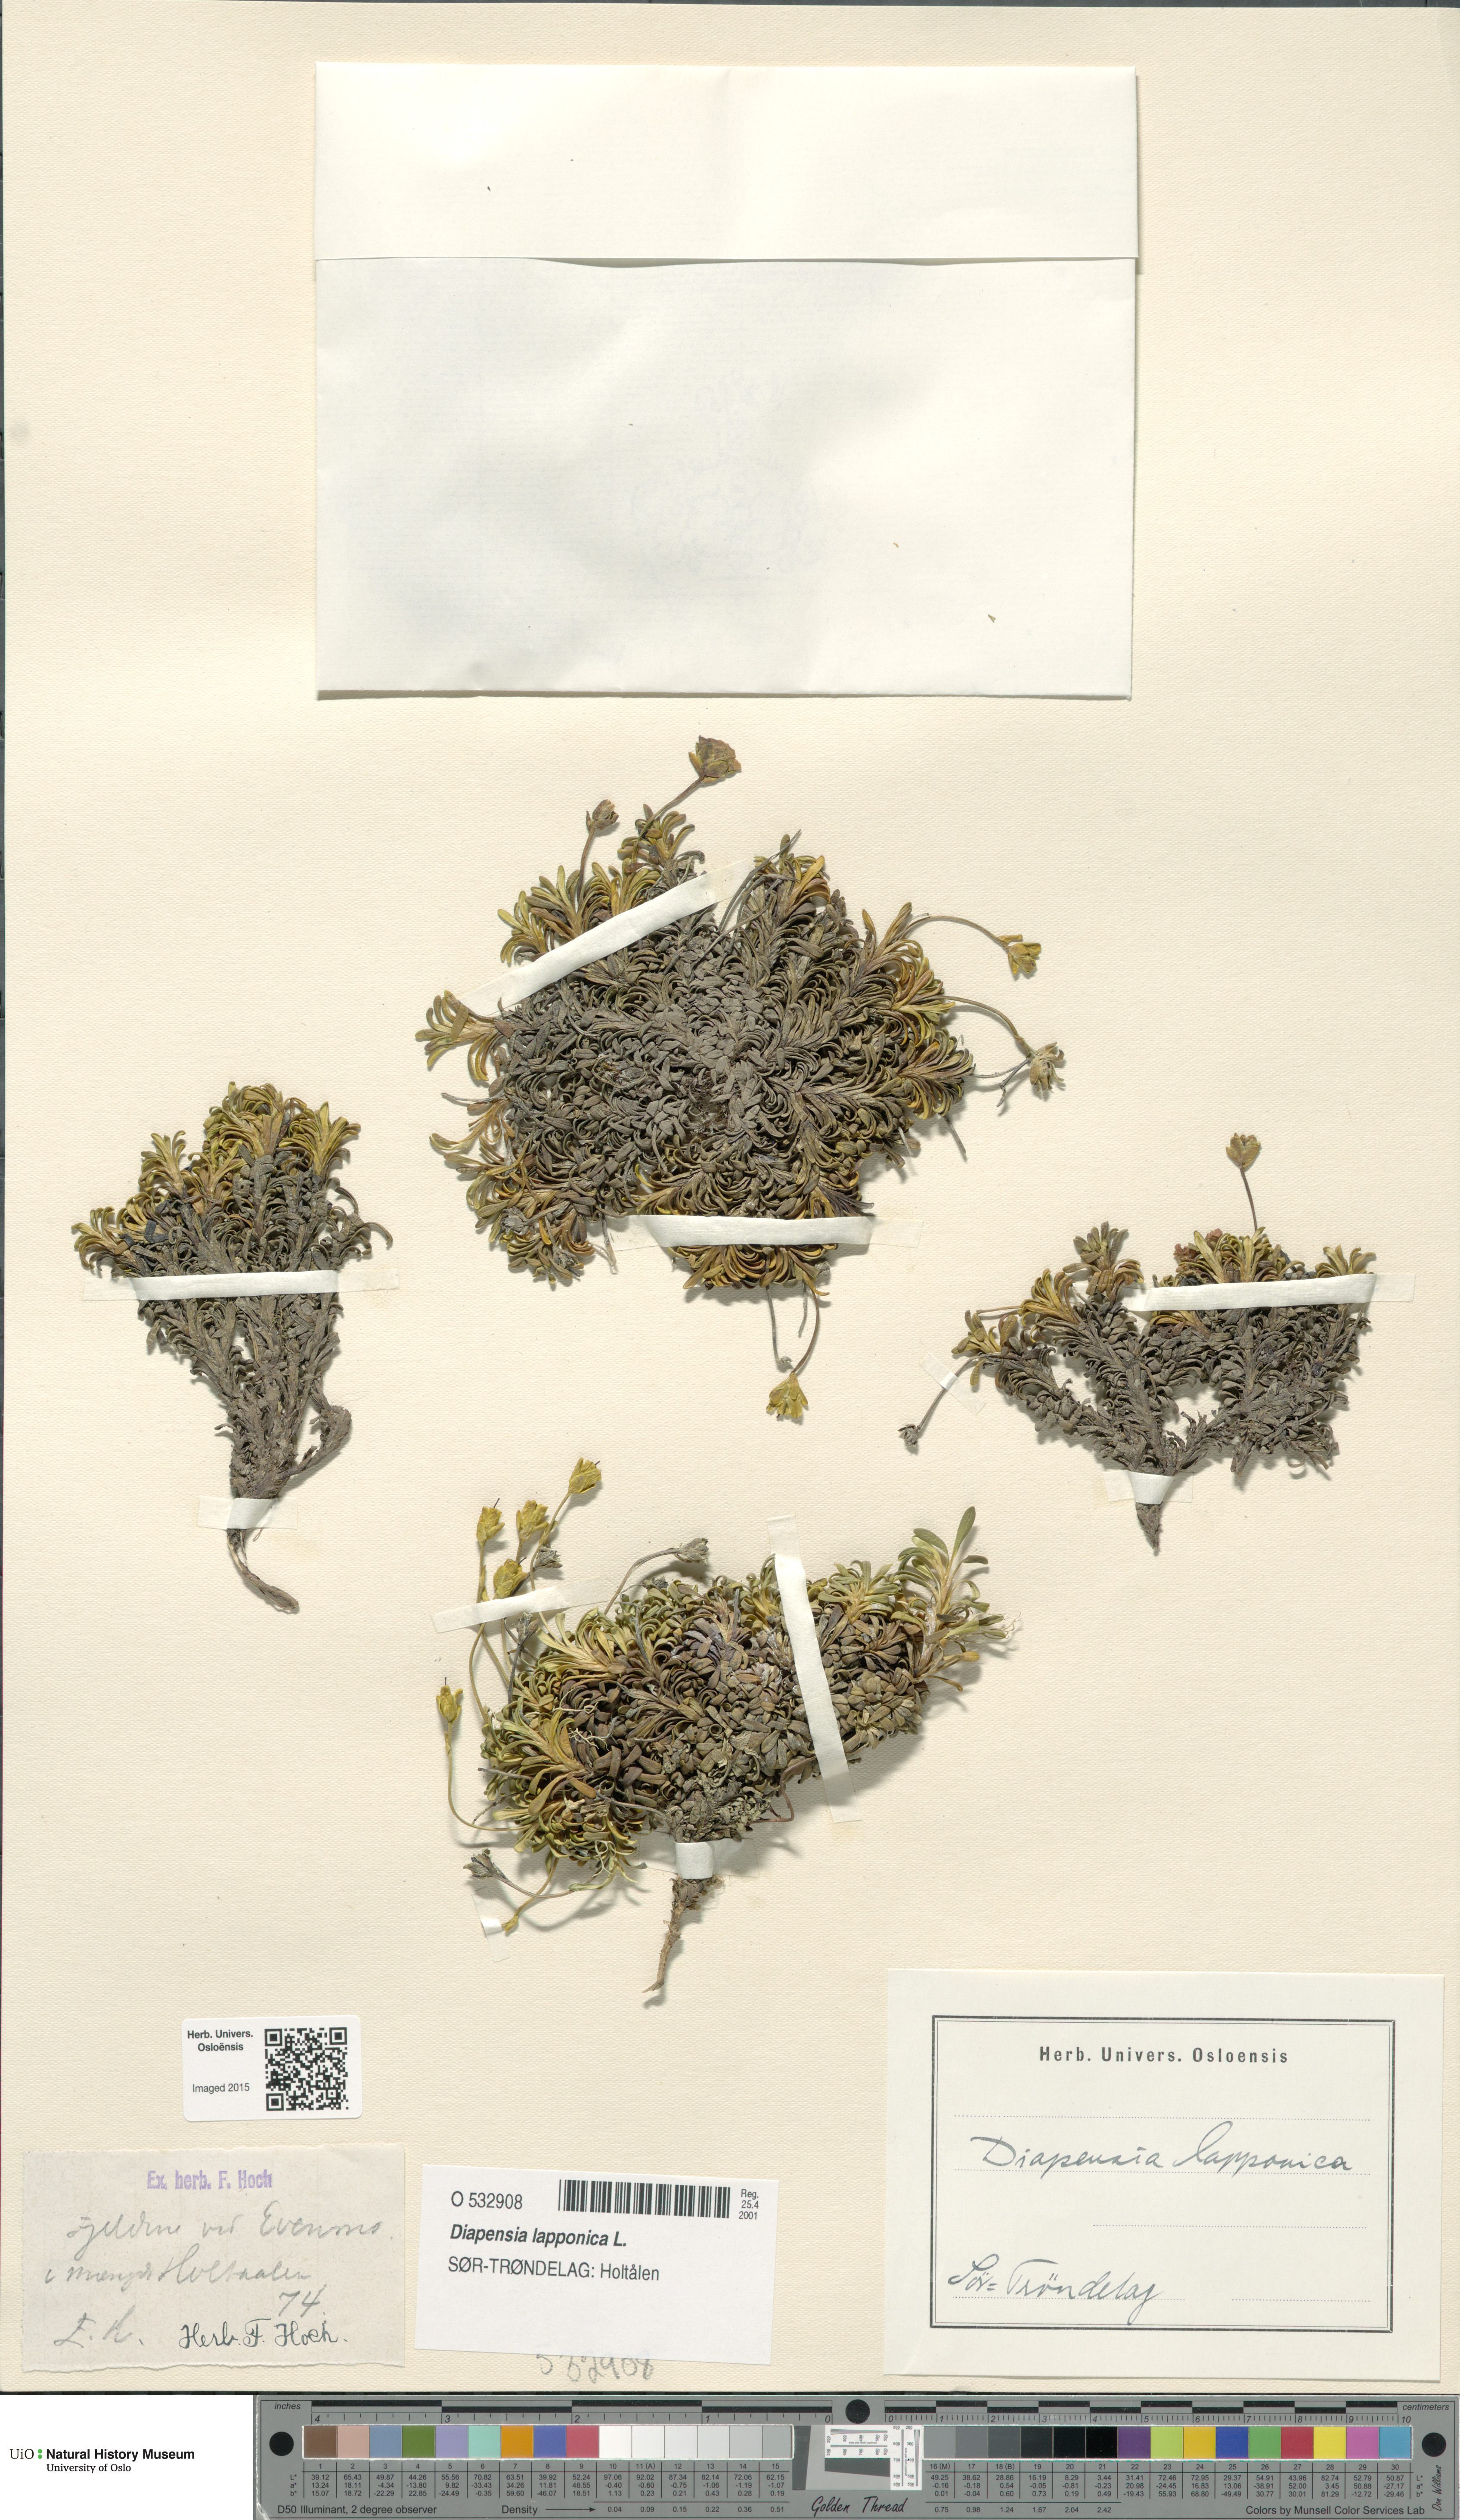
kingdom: Plantae
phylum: Tracheophyta
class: Magnoliopsida
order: Ericales
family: Diapensiaceae
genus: Diapensia
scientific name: Diapensia lapponica
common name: Diapensia
